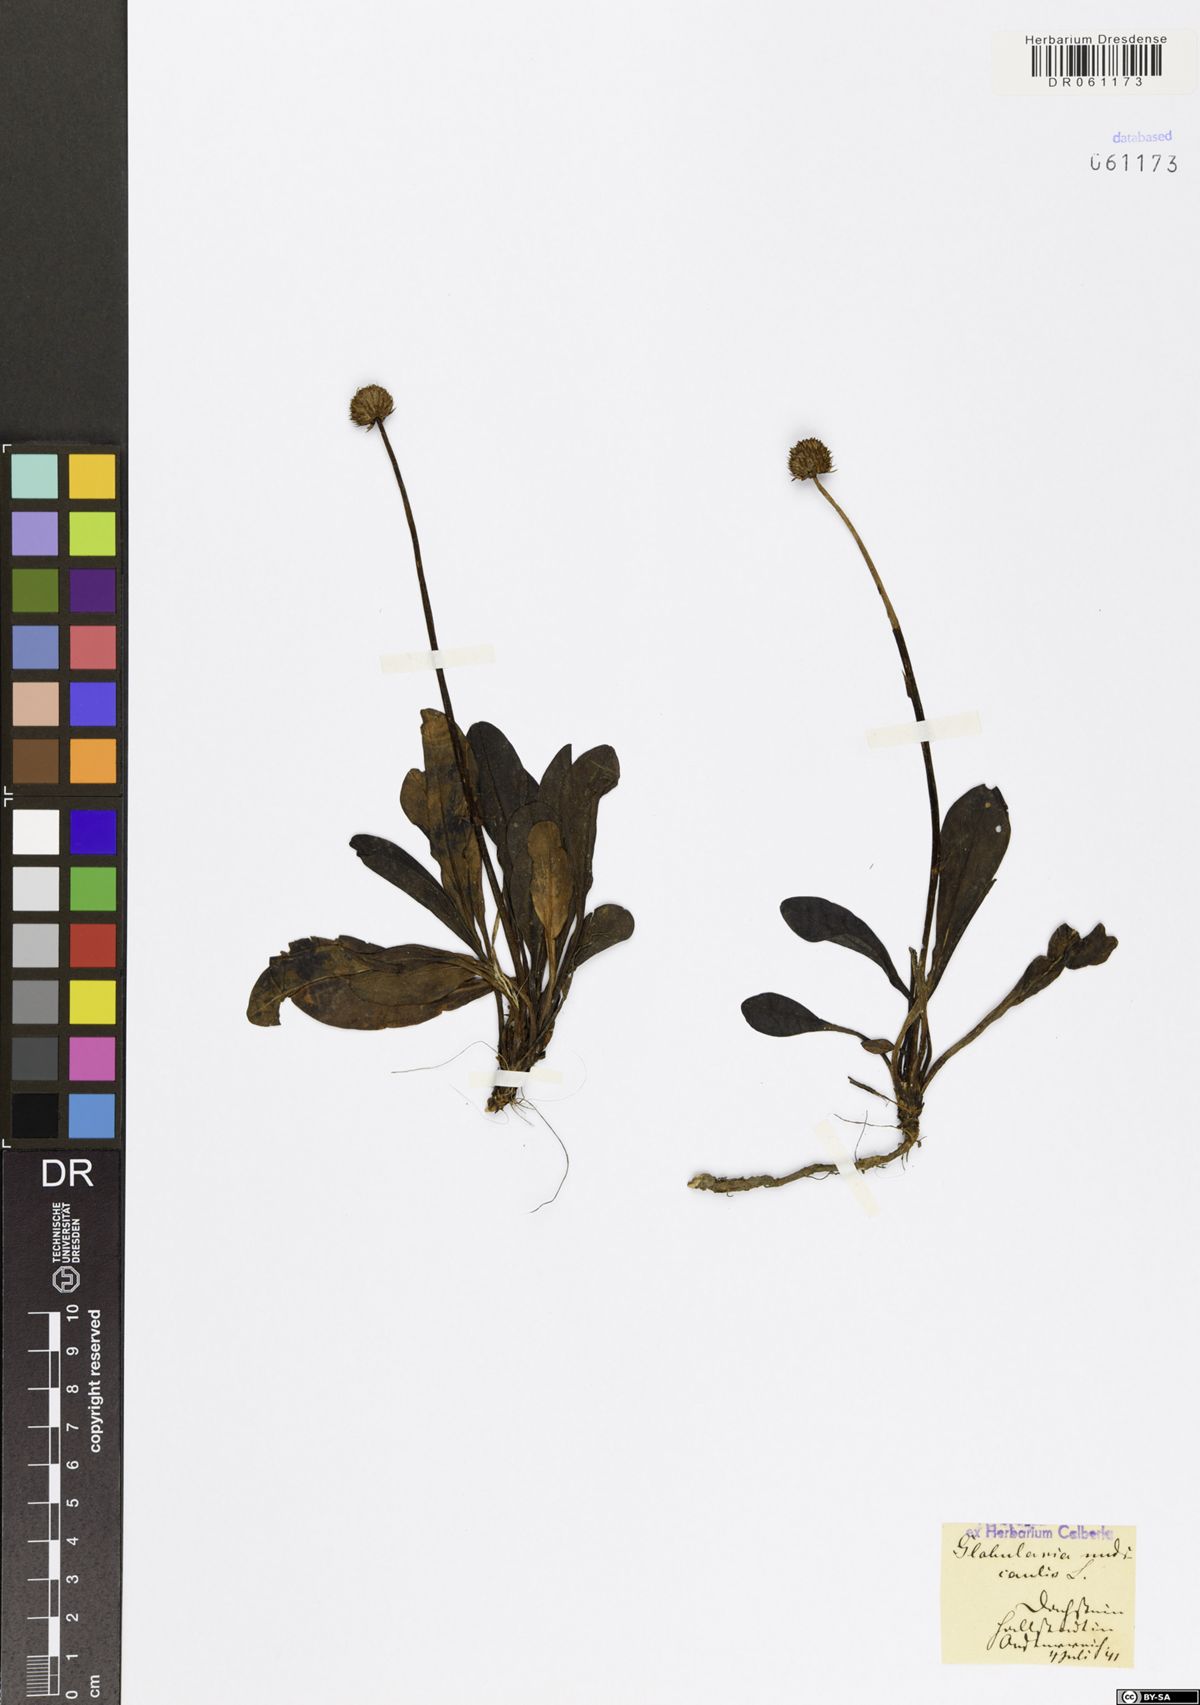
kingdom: Plantae
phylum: Tracheophyta
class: Magnoliopsida
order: Lamiales
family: Plantaginaceae
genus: Globularia
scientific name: Globularia nudicaulis
